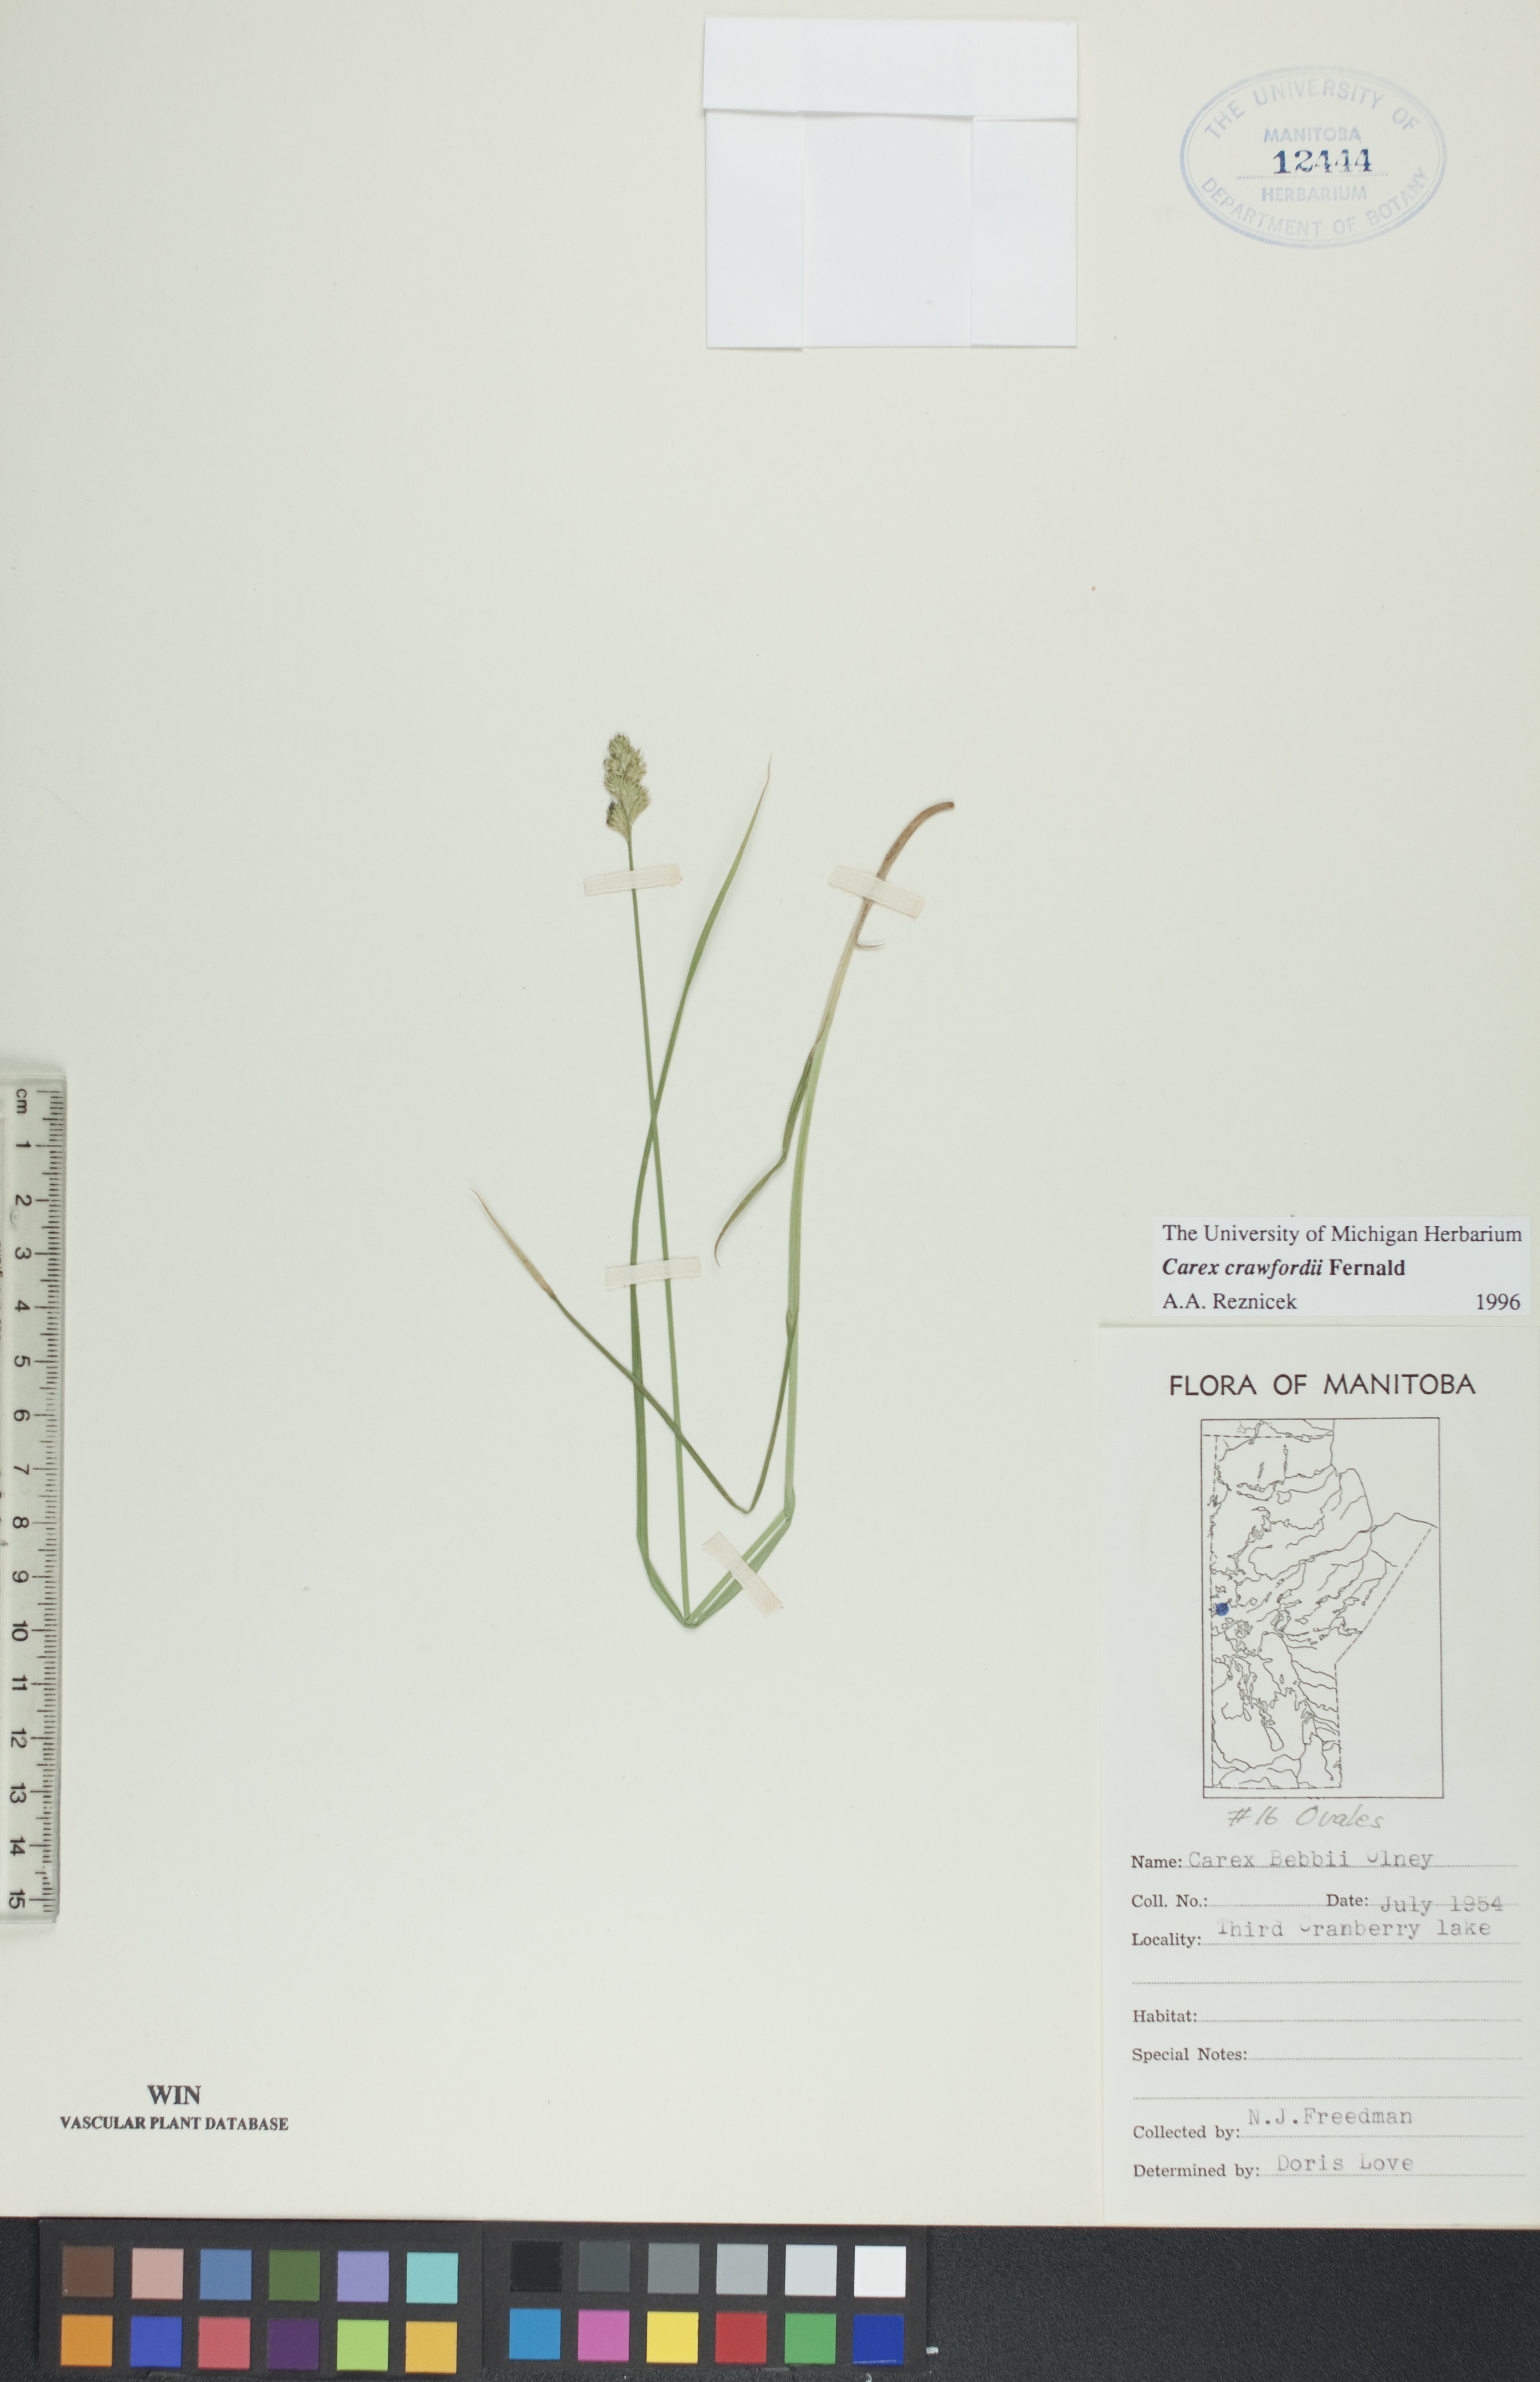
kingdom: Plantae
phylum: Tracheophyta
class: Liliopsida
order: Poales
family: Cyperaceae
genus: Carex
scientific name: Carex crawfordii
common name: Crawford's sedge
